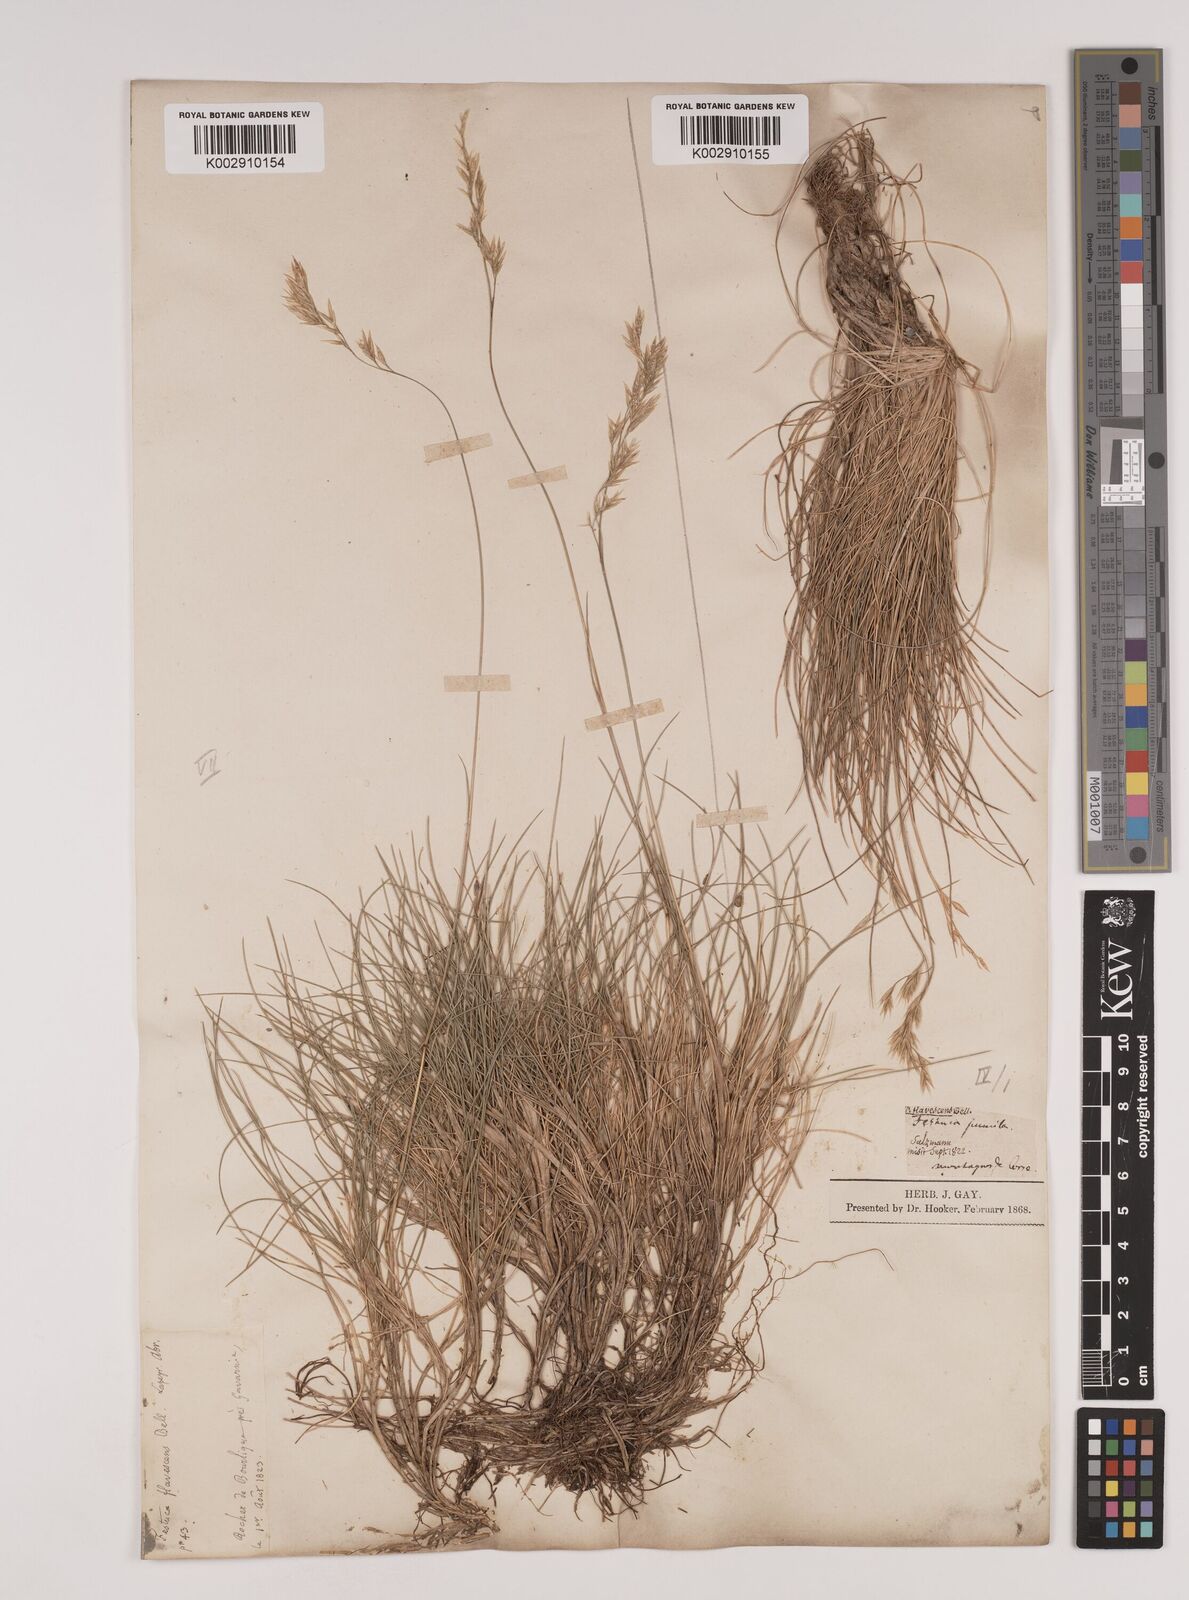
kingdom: Plantae
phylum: Tracheophyta
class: Liliopsida
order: Poales
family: Poaceae
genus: Festuca
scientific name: Festuca
